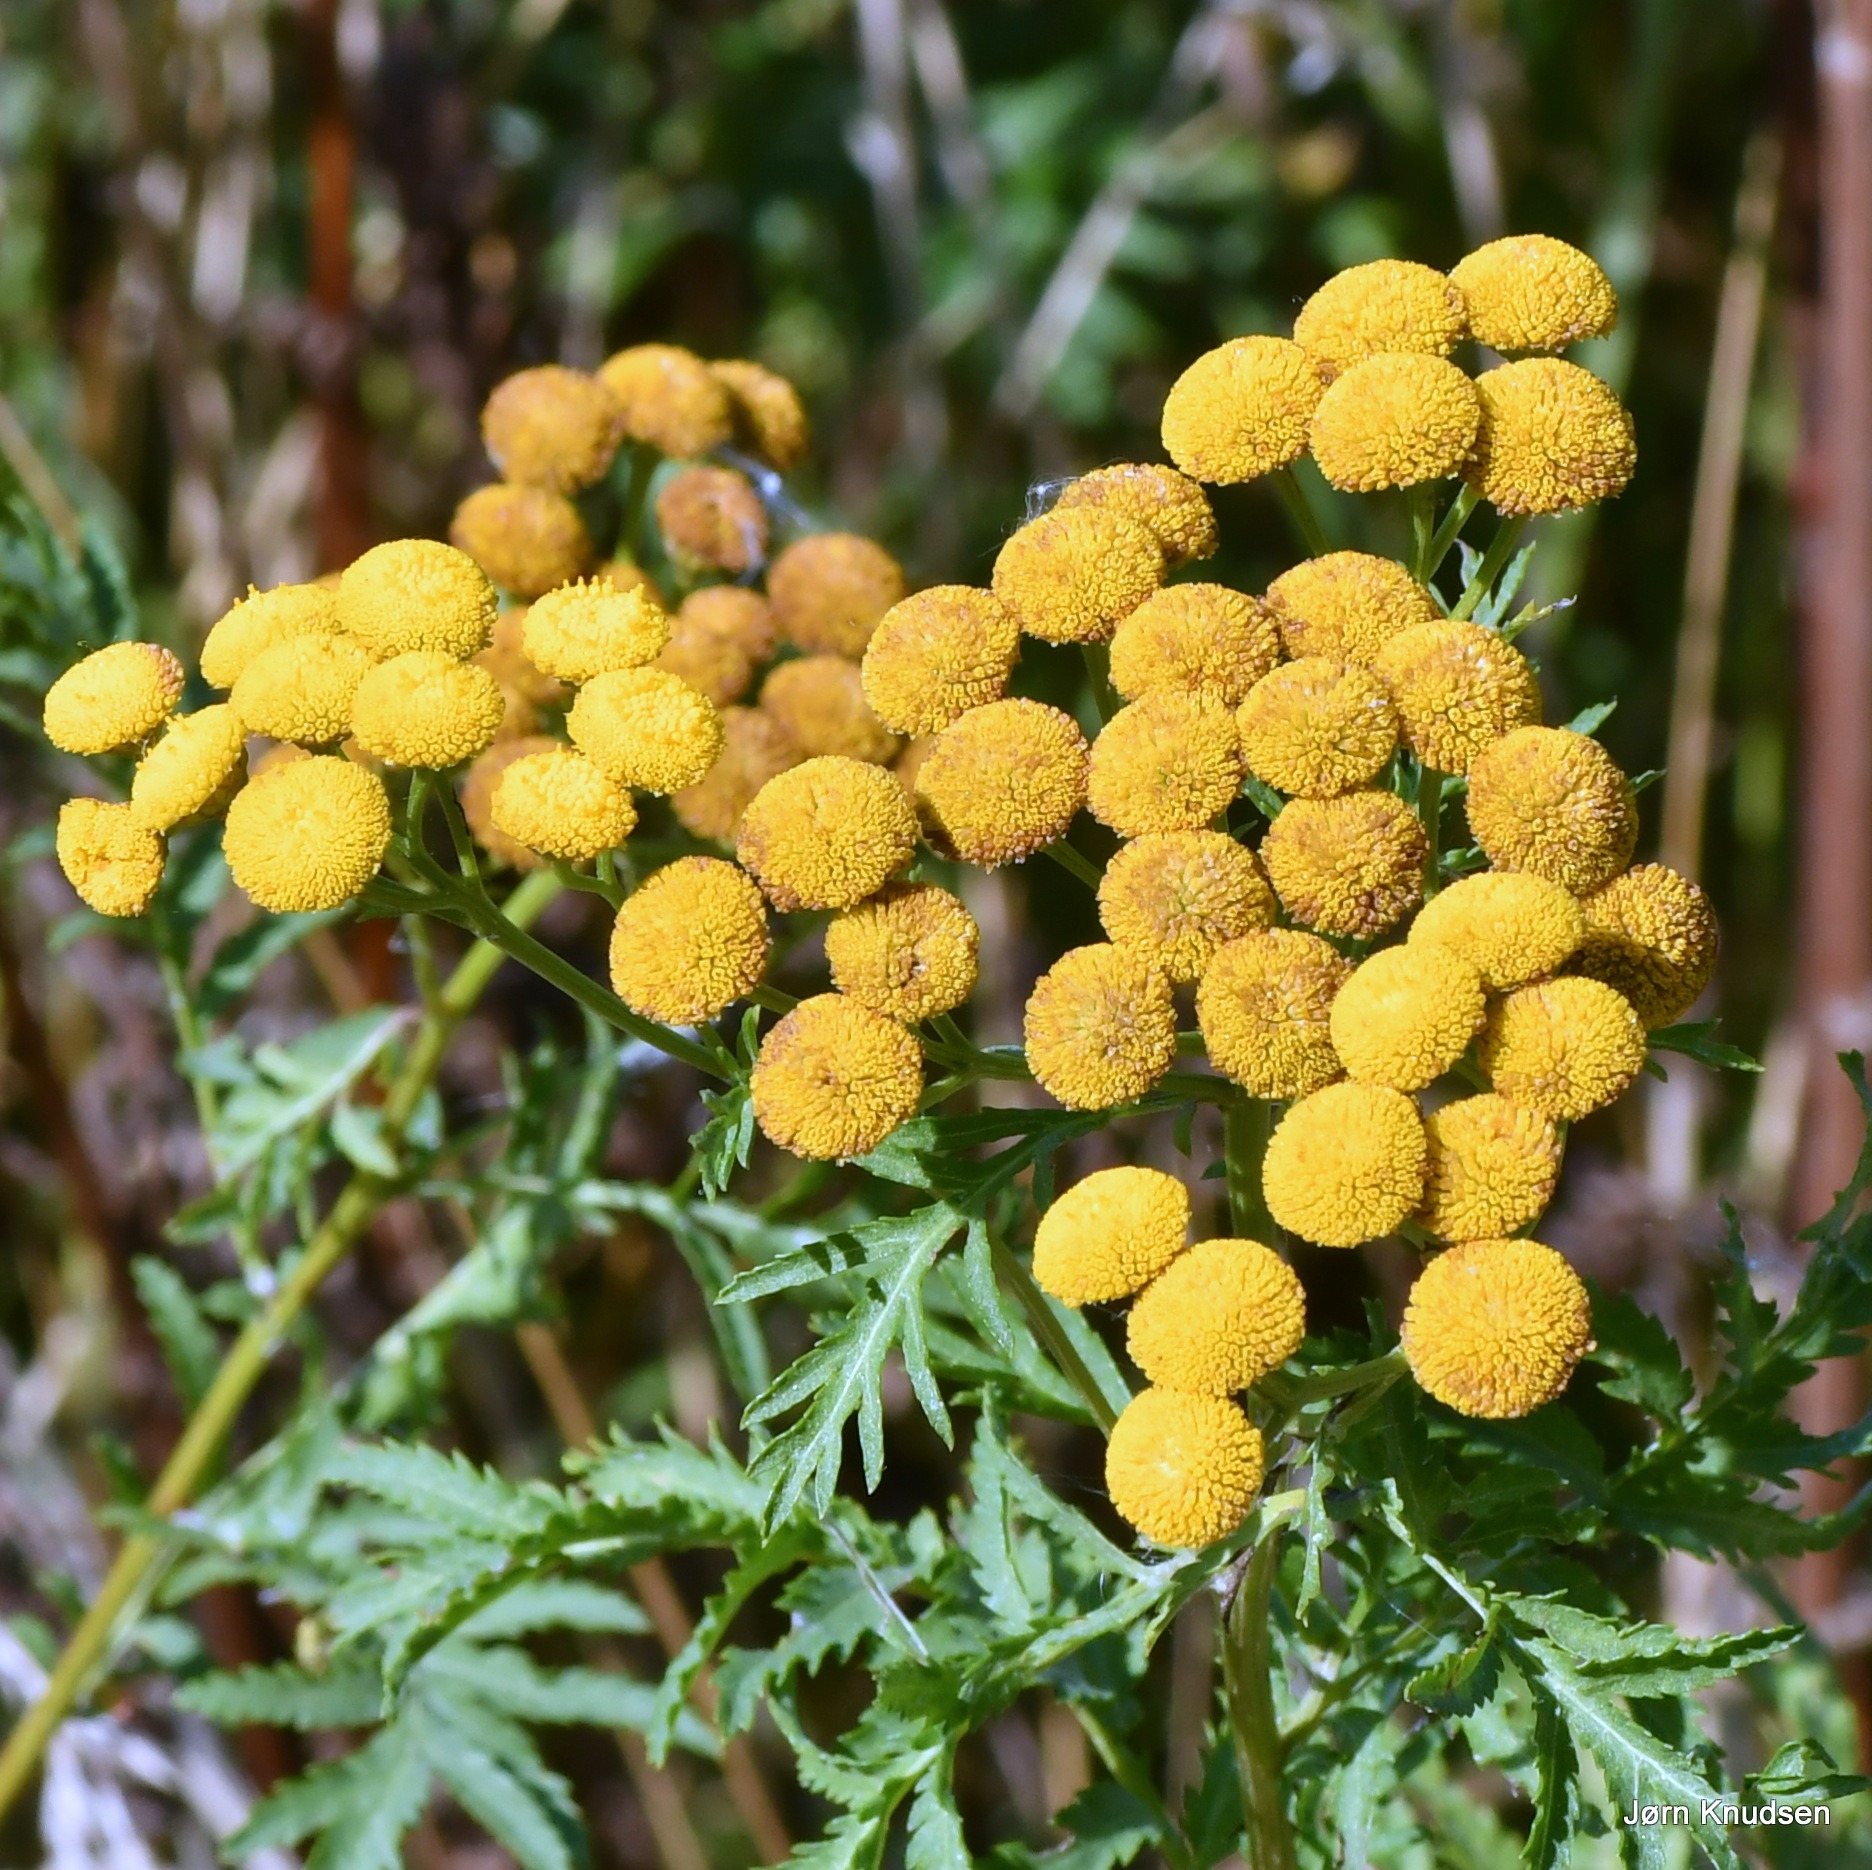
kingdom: Plantae
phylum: Tracheophyta
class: Magnoliopsida
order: Asterales
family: Asteraceae
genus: Tanacetum
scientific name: Tanacetum vulgare
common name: Rejnfan
